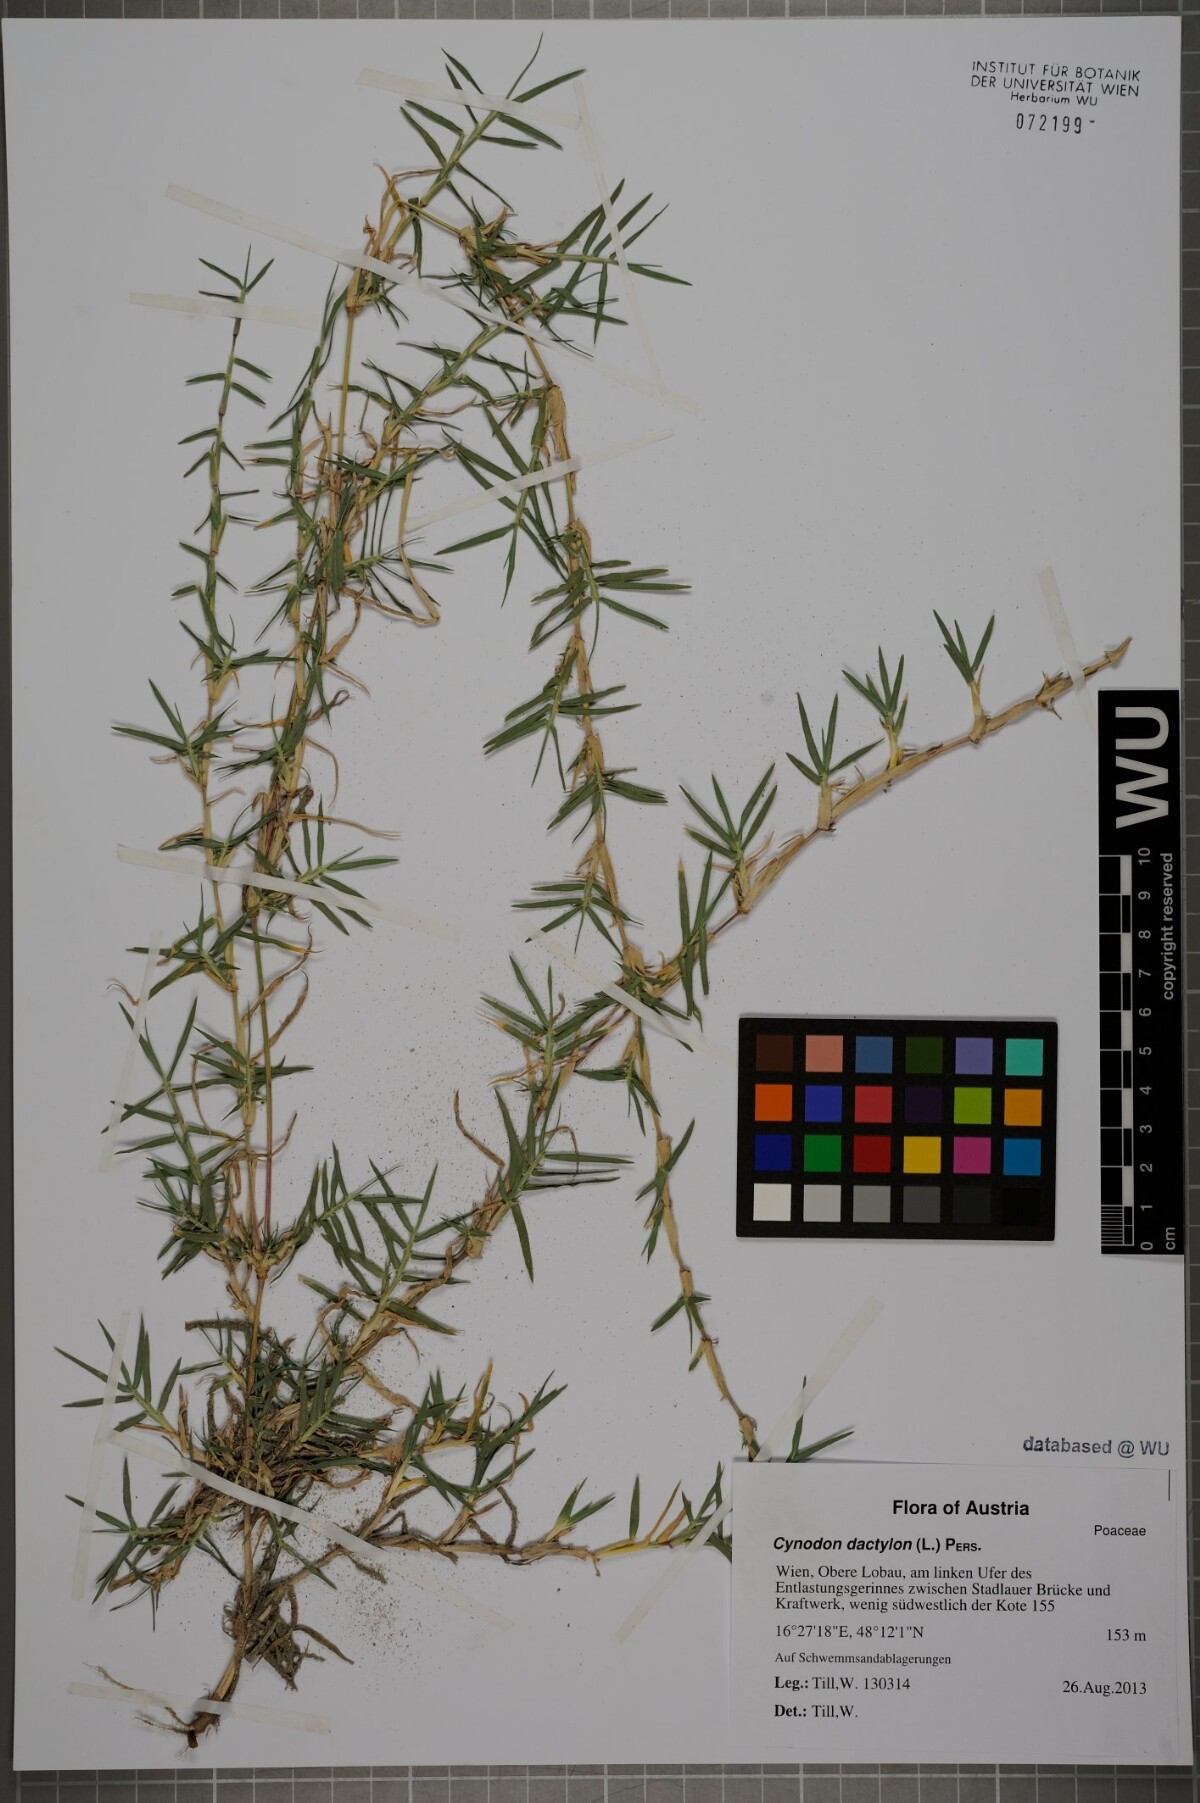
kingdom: Plantae
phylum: Tracheophyta
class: Liliopsida
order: Poales
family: Poaceae
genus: Cynodon
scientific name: Cynodon dactylon
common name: Bermuda grass
